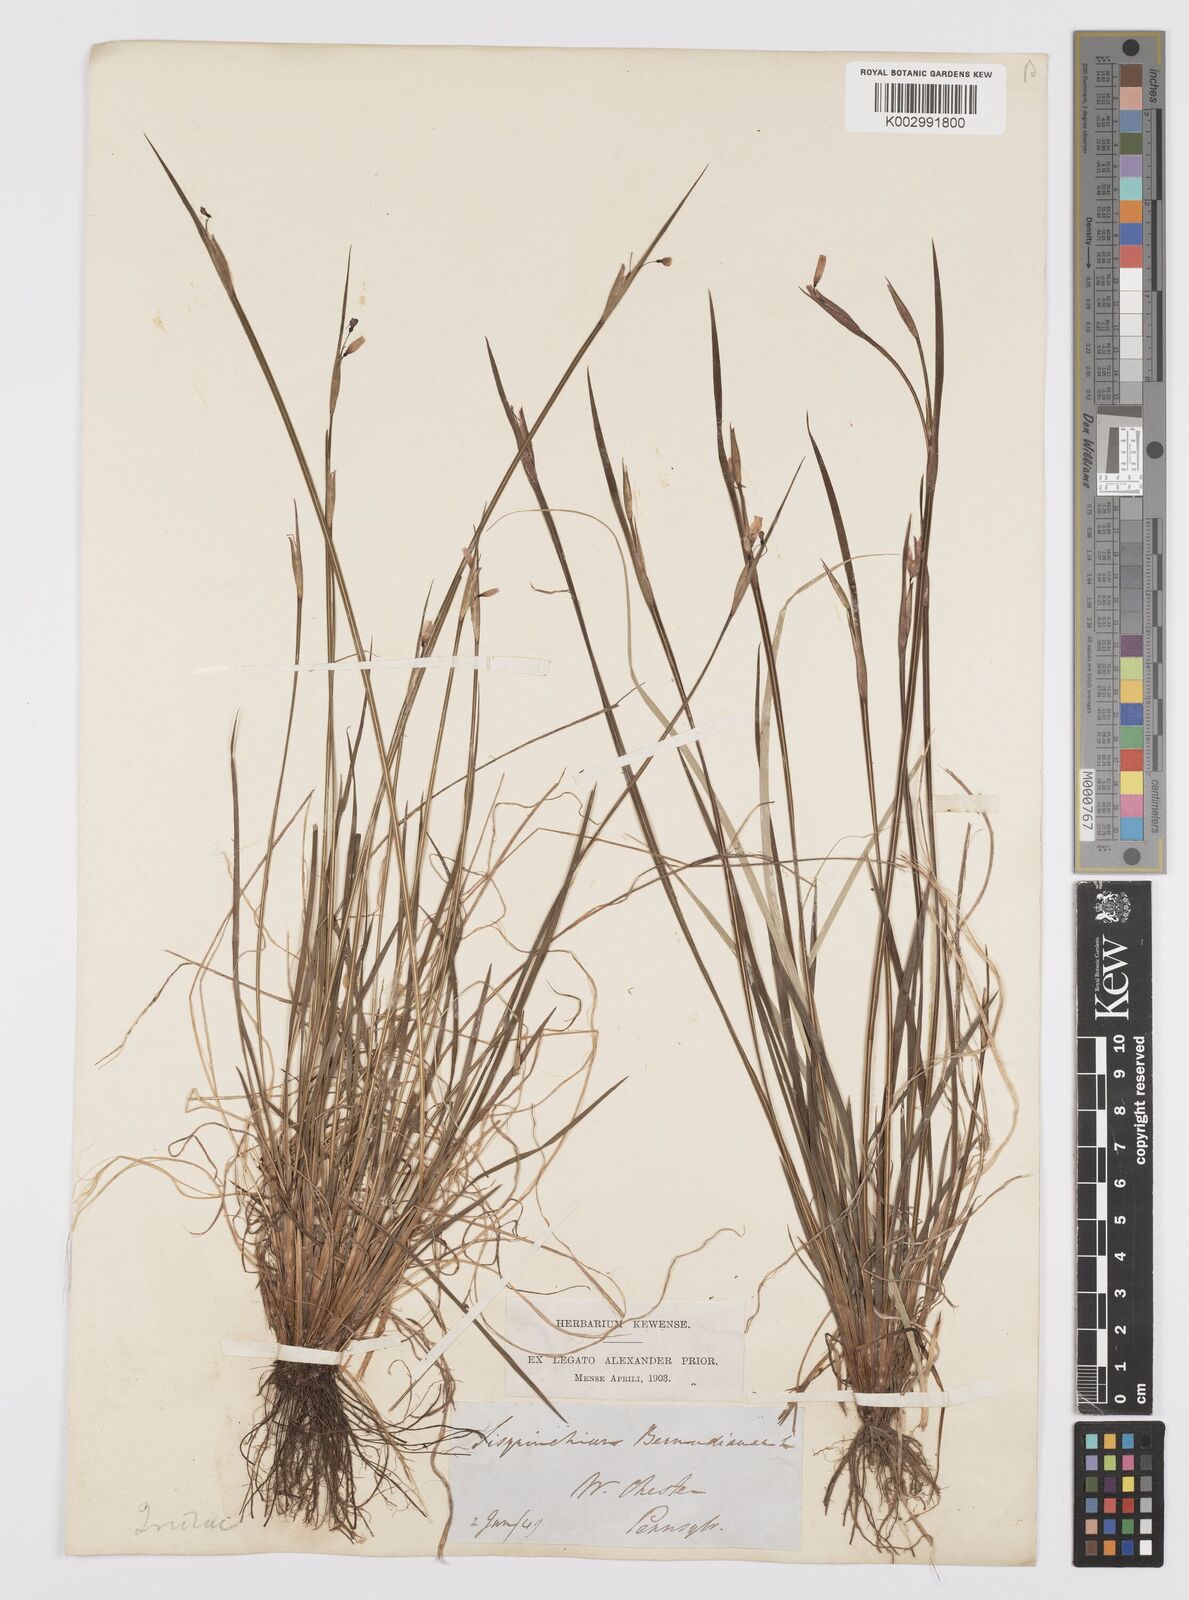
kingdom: Plantae
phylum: Tracheophyta
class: Liliopsida
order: Asparagales
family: Iridaceae
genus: Sisyrinchium
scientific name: Sisyrinchium bermudiana
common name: Blue-eyed-grass
